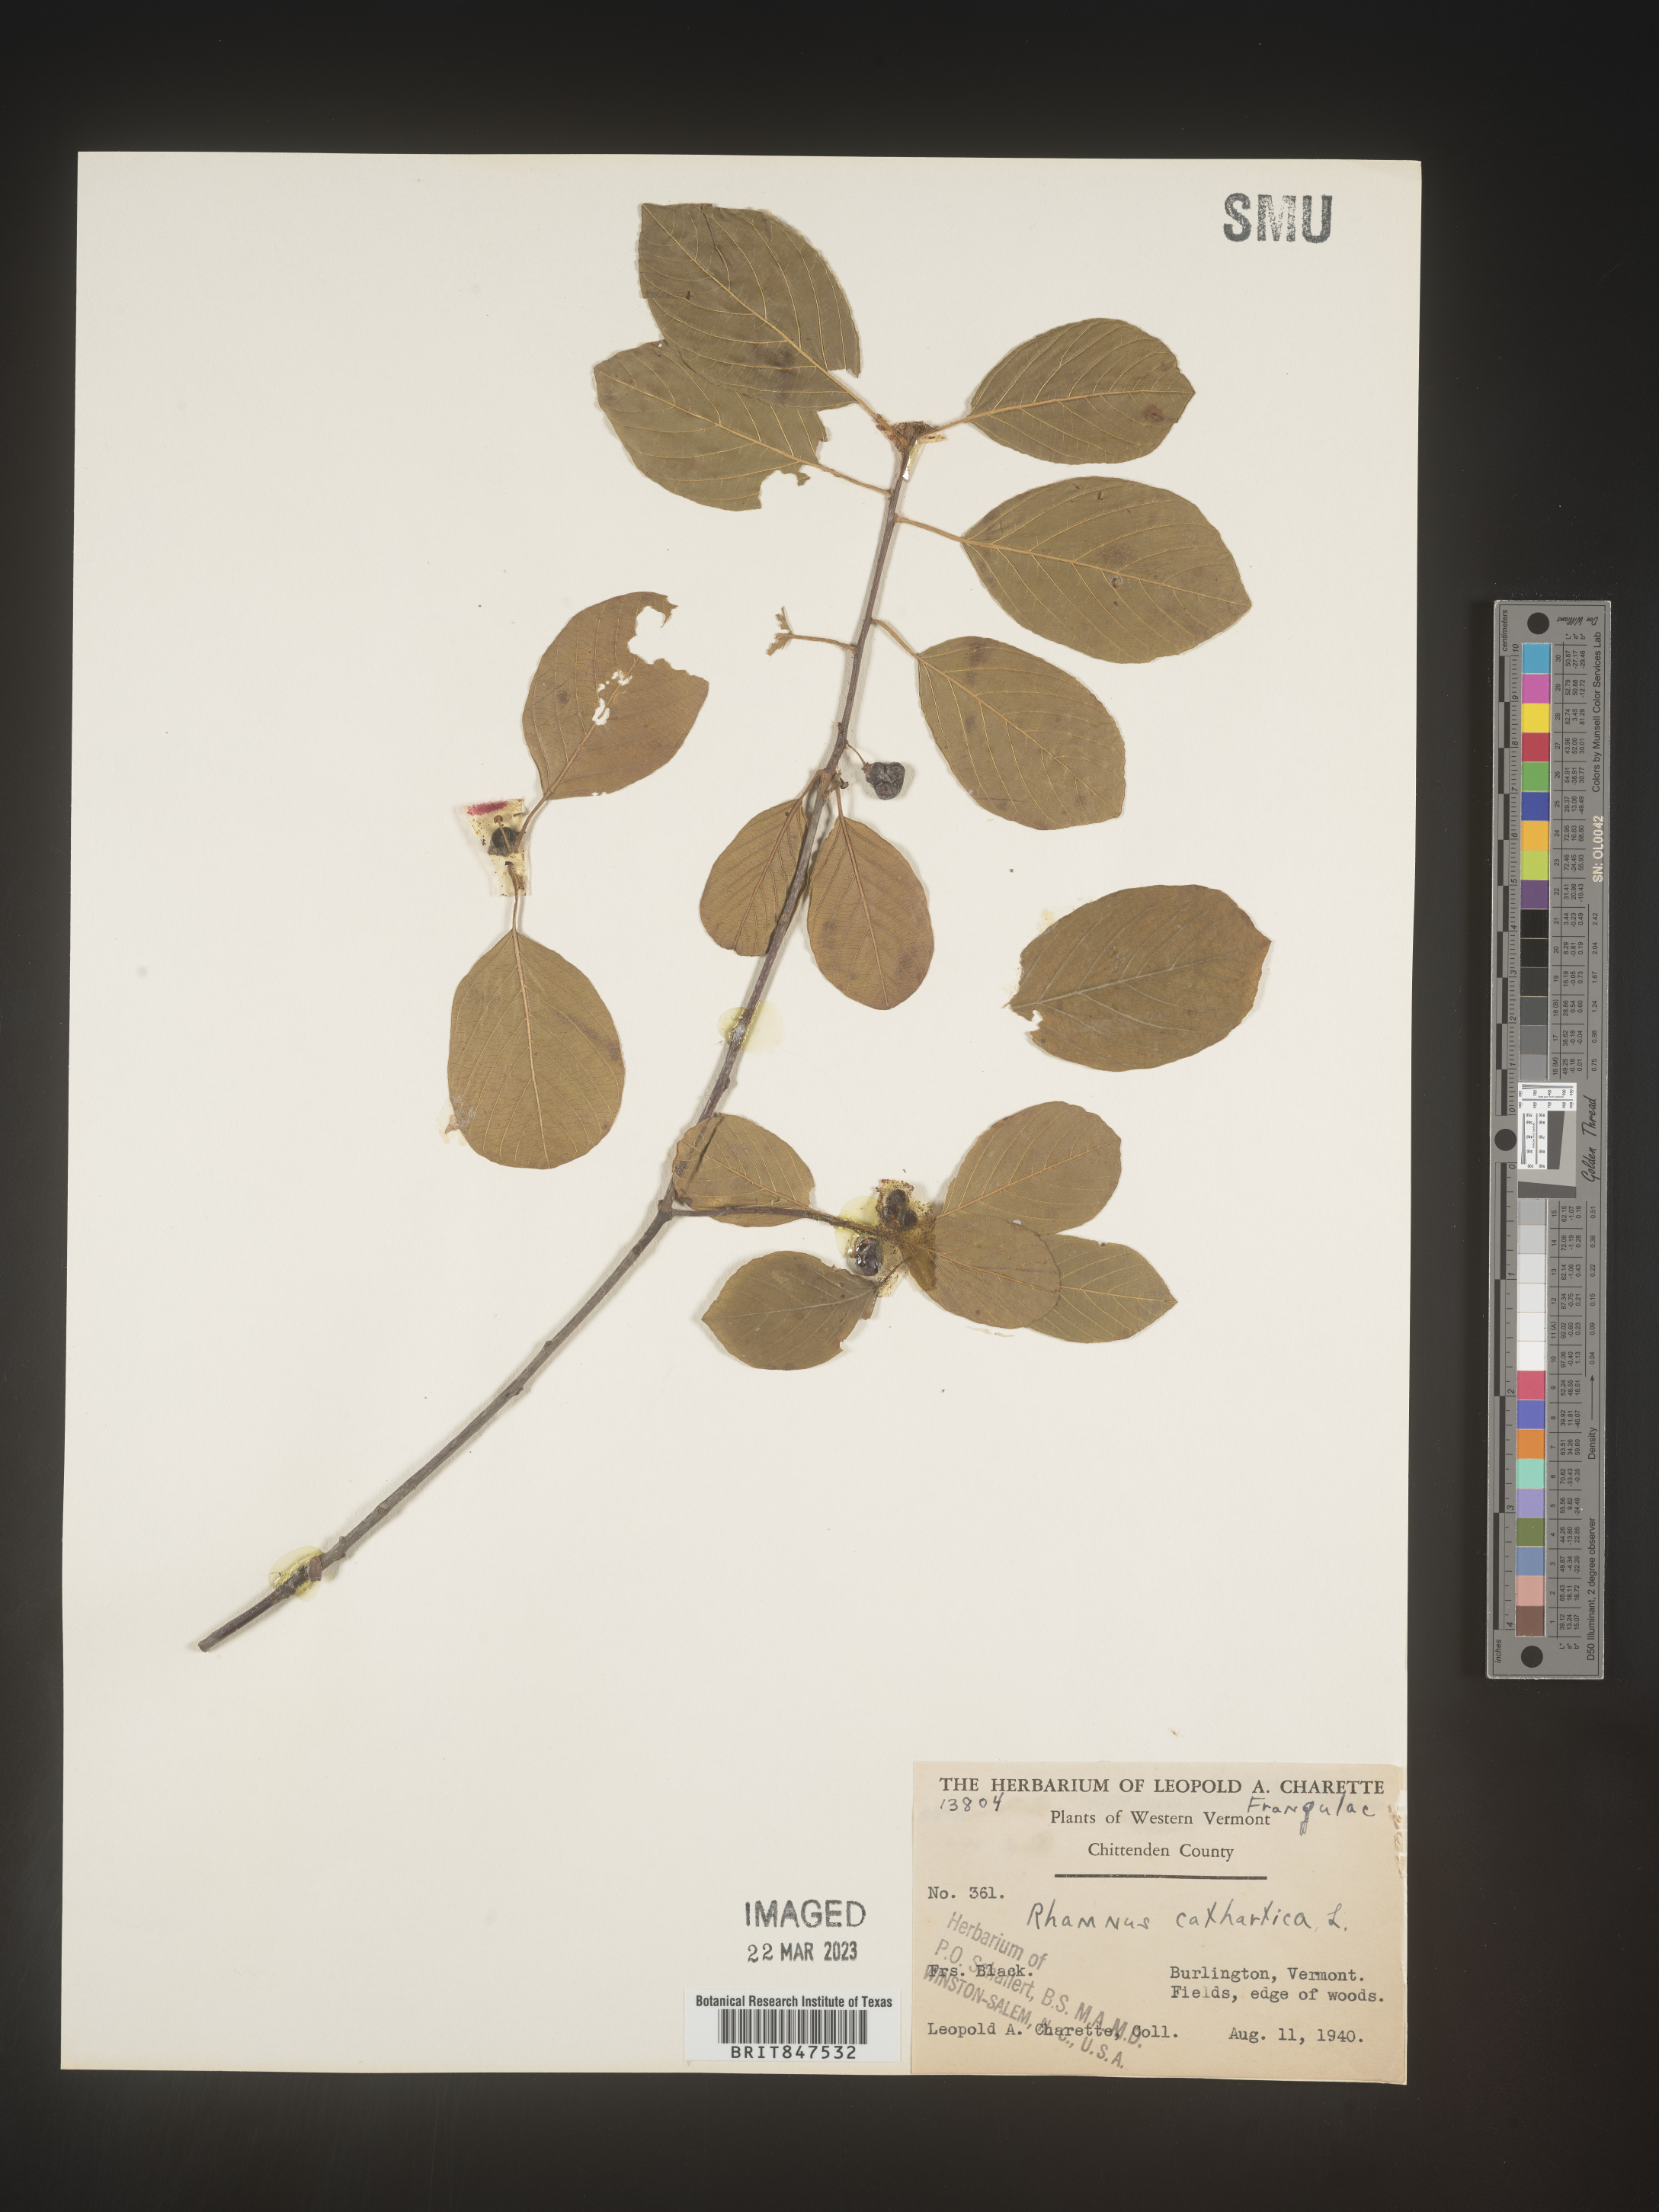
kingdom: Plantae
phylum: Tracheophyta
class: Magnoliopsida
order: Rosales
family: Rhamnaceae
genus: Rhamnus
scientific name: Rhamnus cathartica
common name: Common buckthorn
